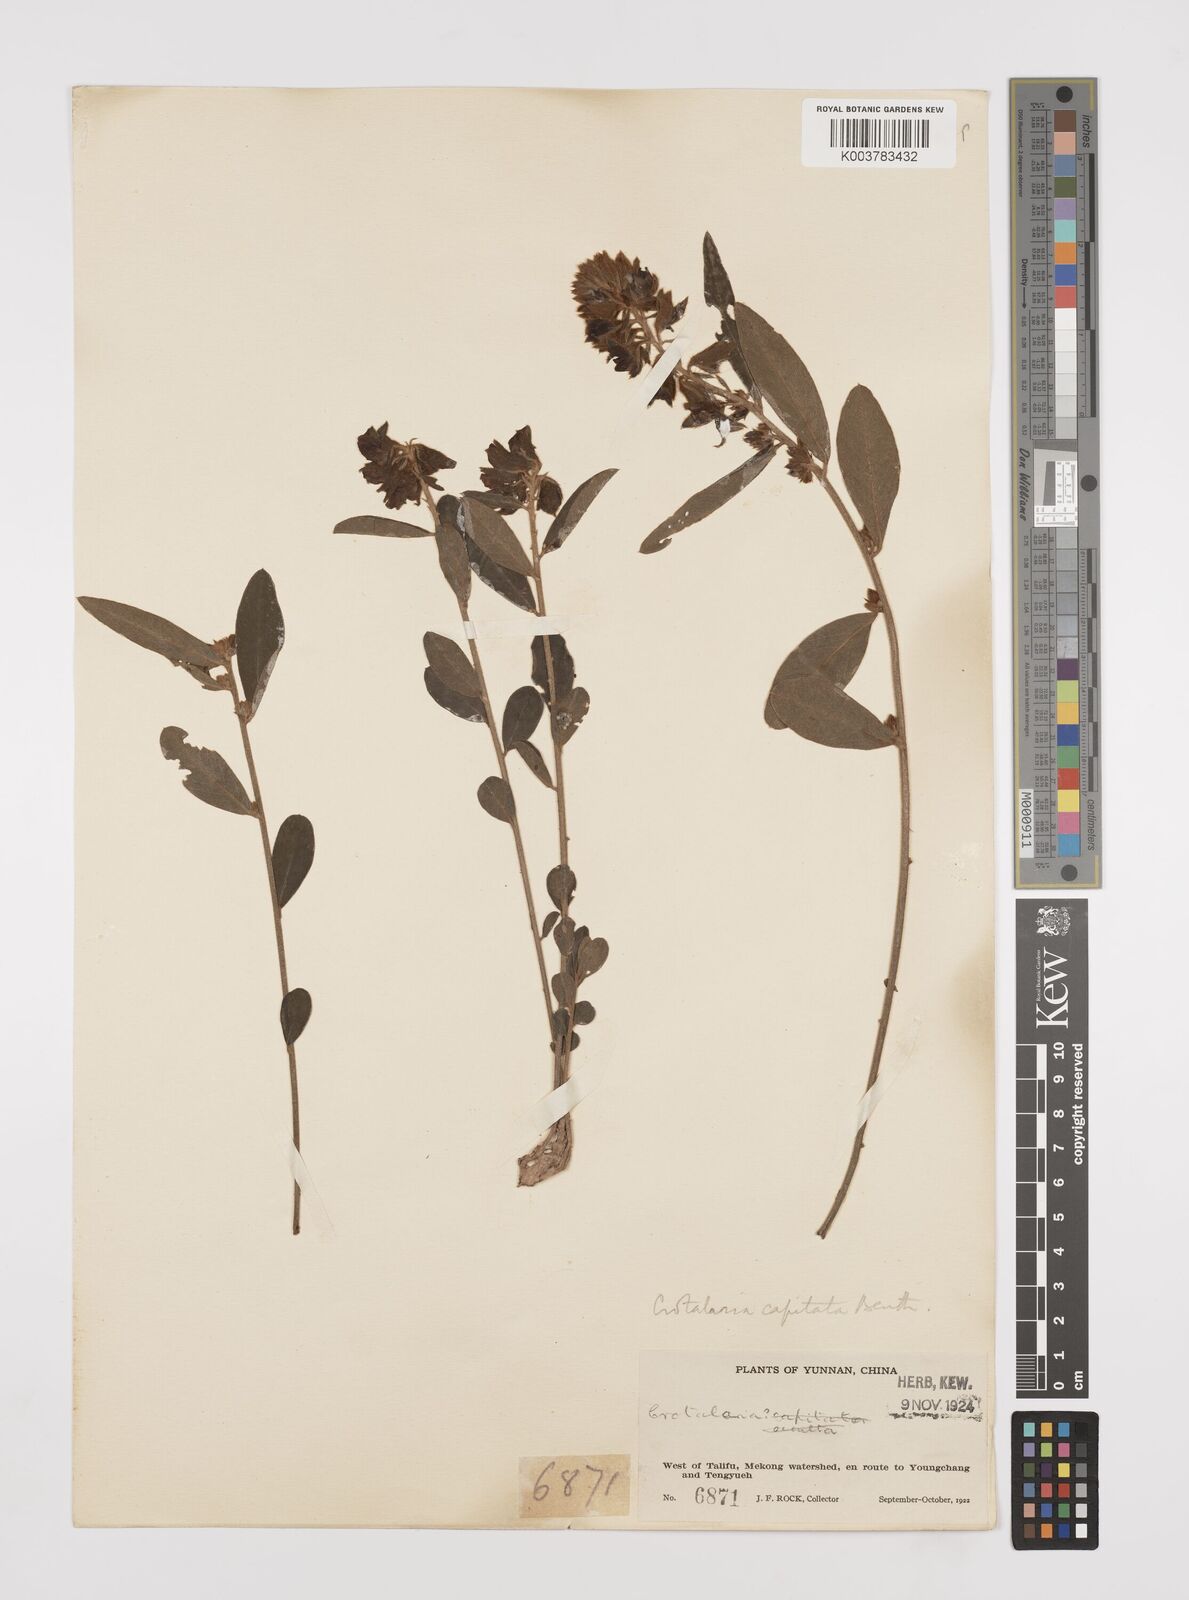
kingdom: Plantae
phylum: Tracheophyta
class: Magnoliopsida
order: Fabales
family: Fabaceae
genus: Liparia
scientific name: Liparia capitata
